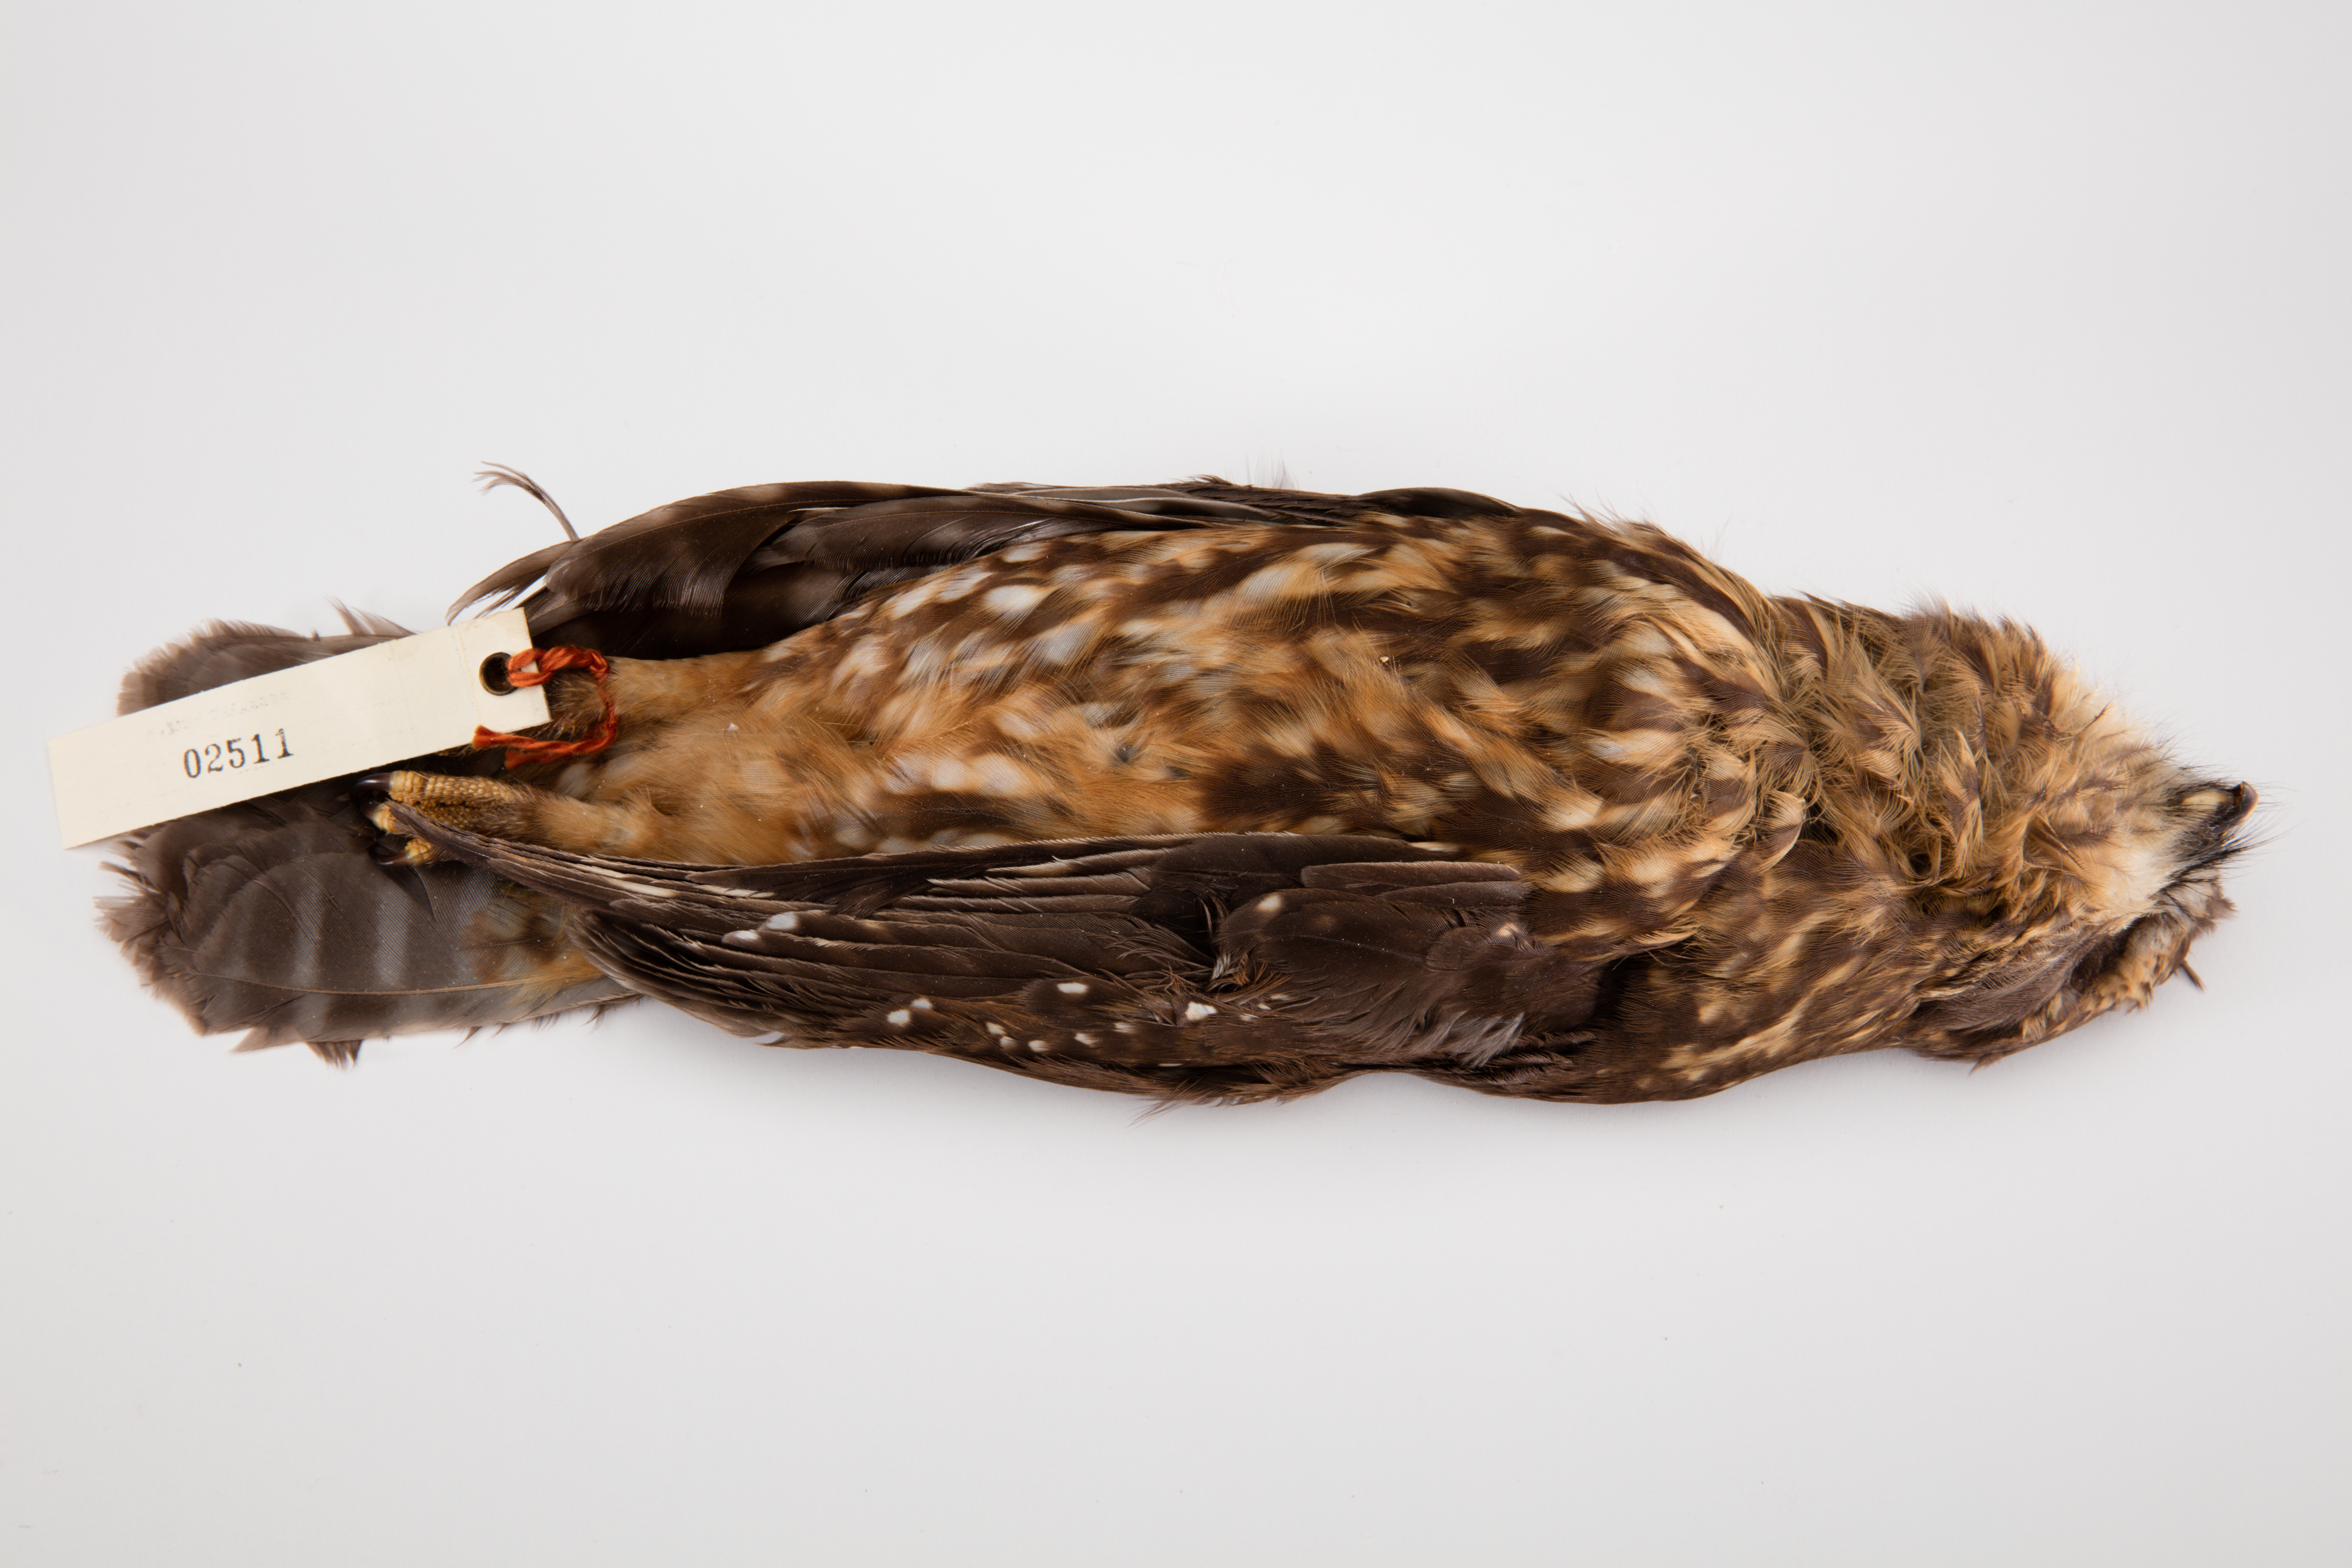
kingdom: Animalia
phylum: Chordata
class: Aves
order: Strigiformes
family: Strigidae
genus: Ninox
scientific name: Ninox novaeseelandiae
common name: Morepork
